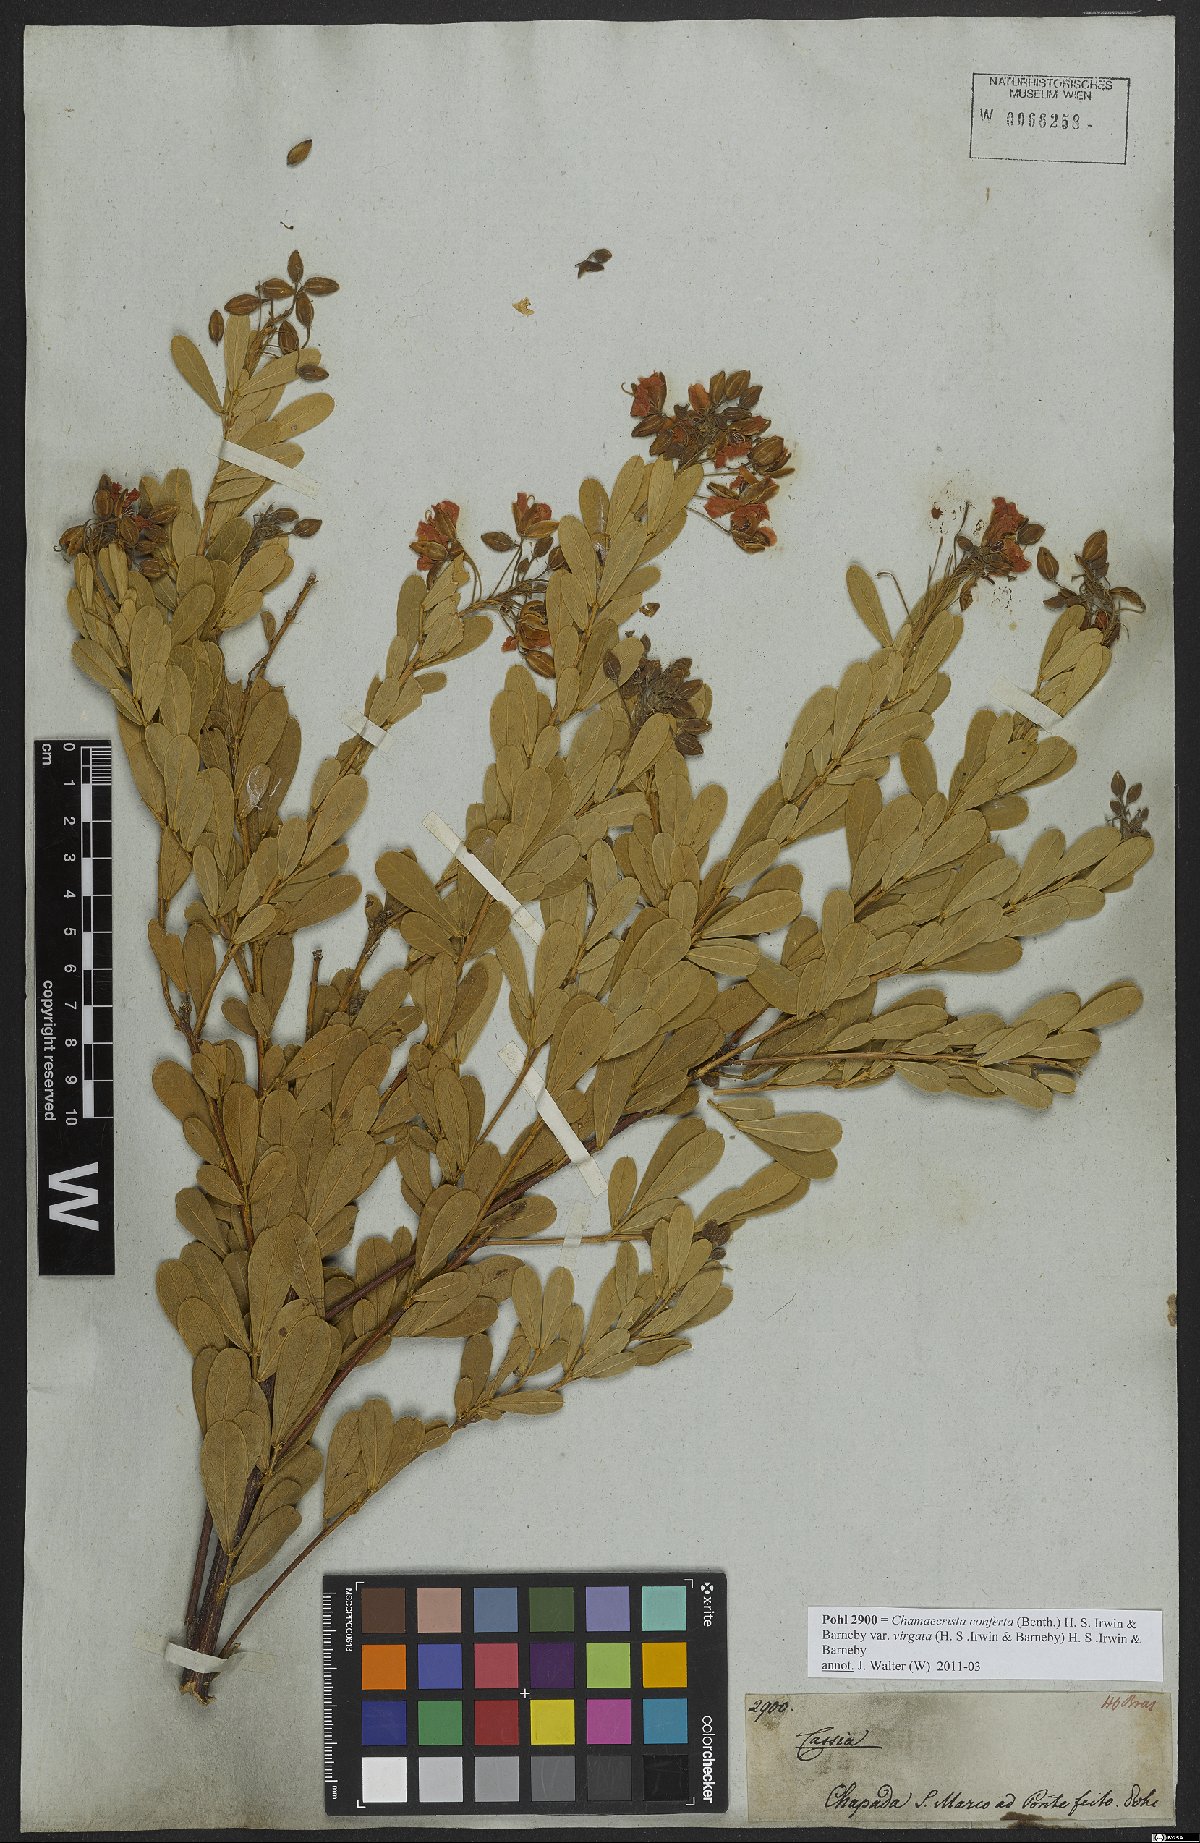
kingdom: Plantae
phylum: Tracheophyta
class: Magnoliopsida
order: Fabales
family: Fabaceae
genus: Chamaecrista
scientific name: Chamaecrista conferta
